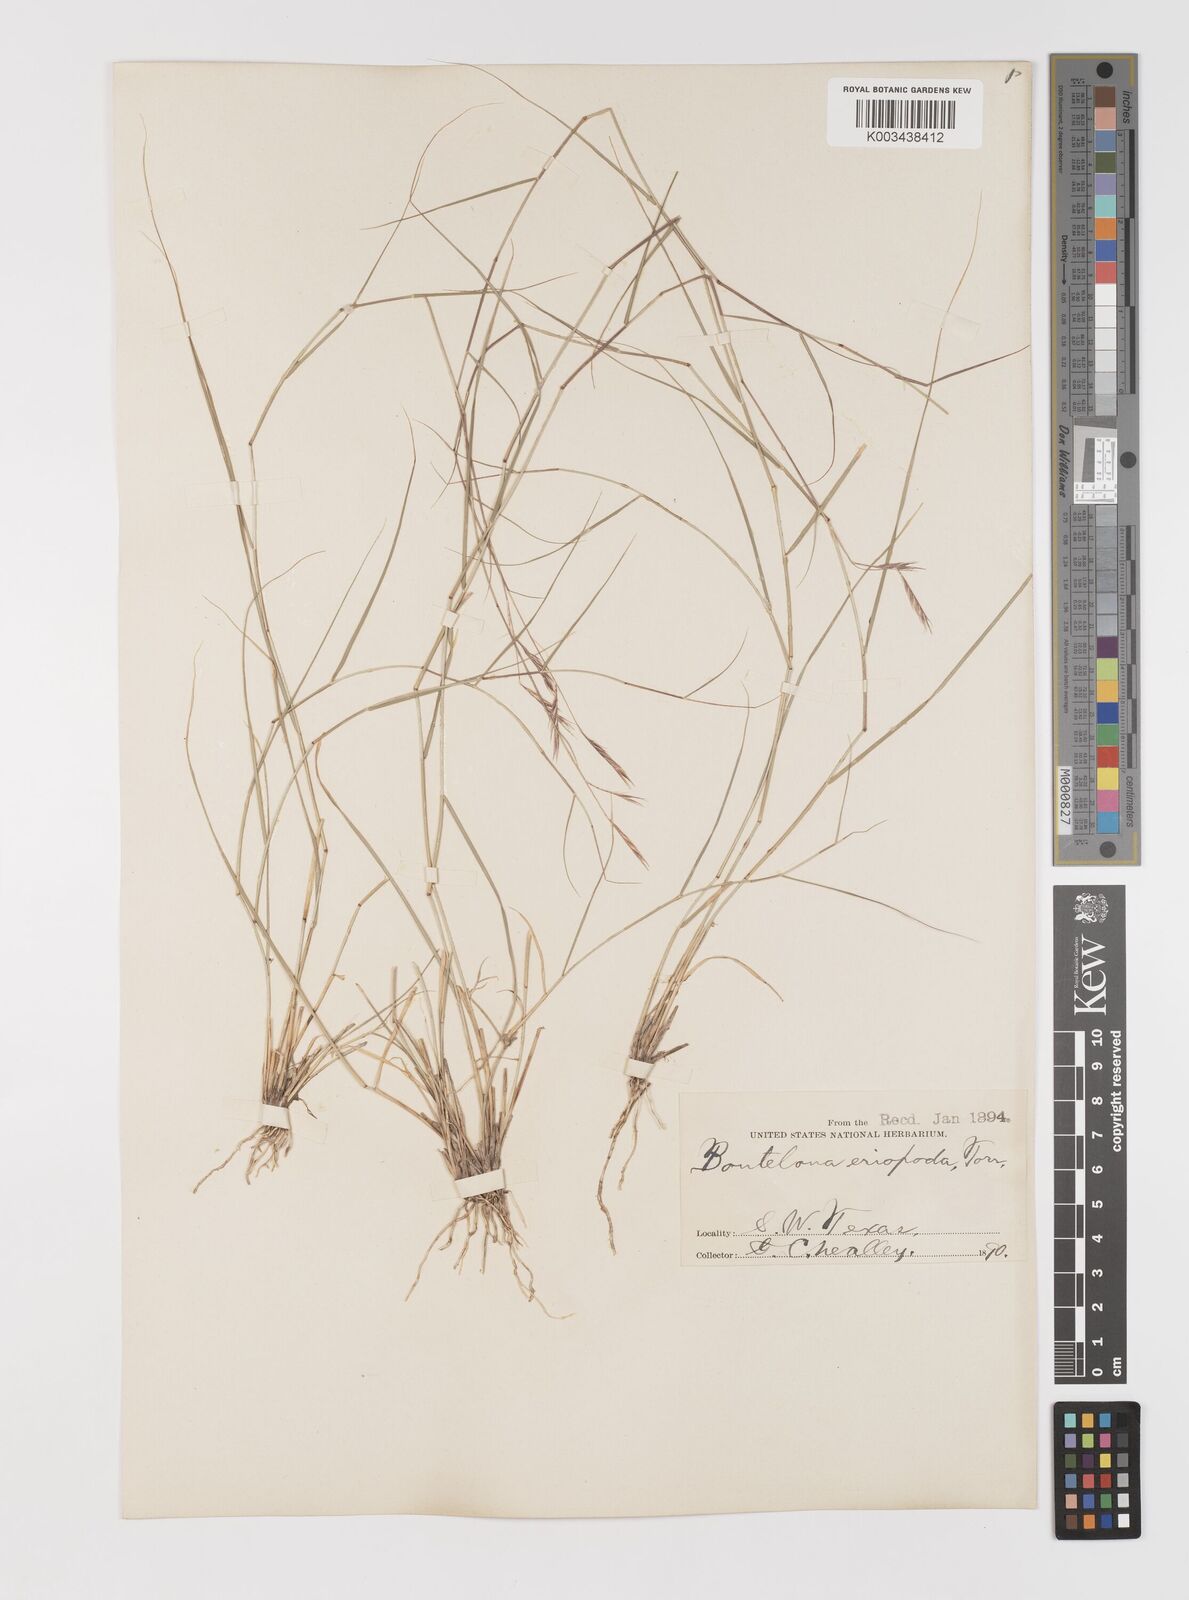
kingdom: Plantae
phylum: Tracheophyta
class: Liliopsida
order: Poales
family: Poaceae
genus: Bouteloua
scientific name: Bouteloua eriopoda
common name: Woolly foot grama
